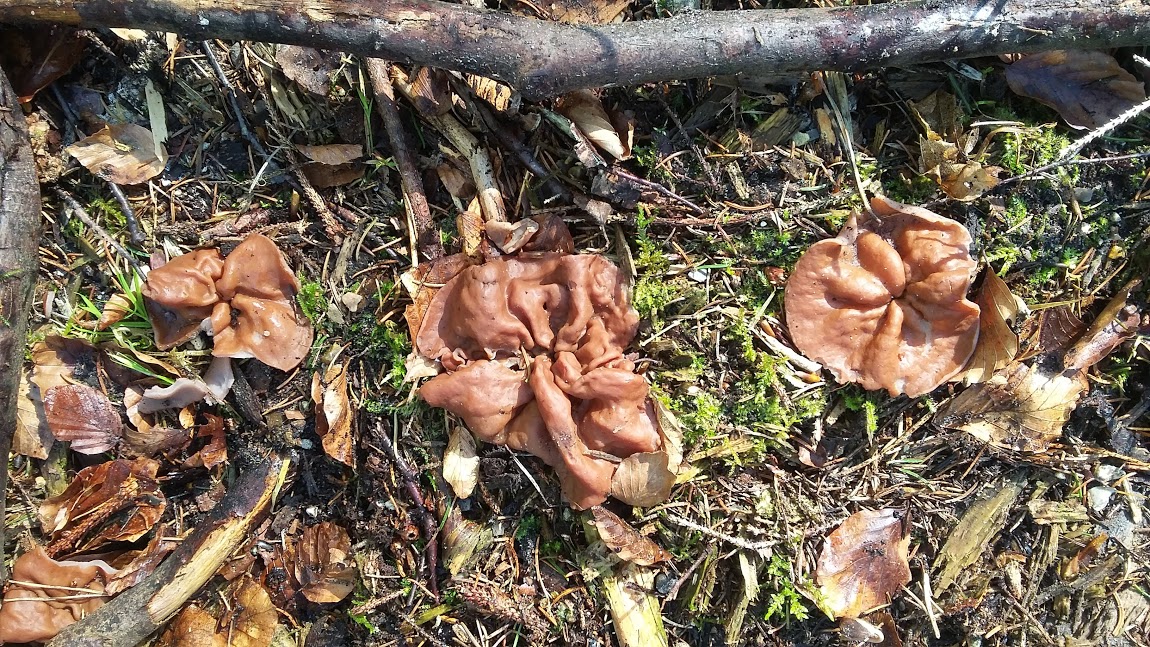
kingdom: Fungi
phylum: Ascomycota
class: Pezizomycetes
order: Pezizales
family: Discinaceae
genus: Discina
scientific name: Discina ancilis
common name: udbredt stenmorkel
